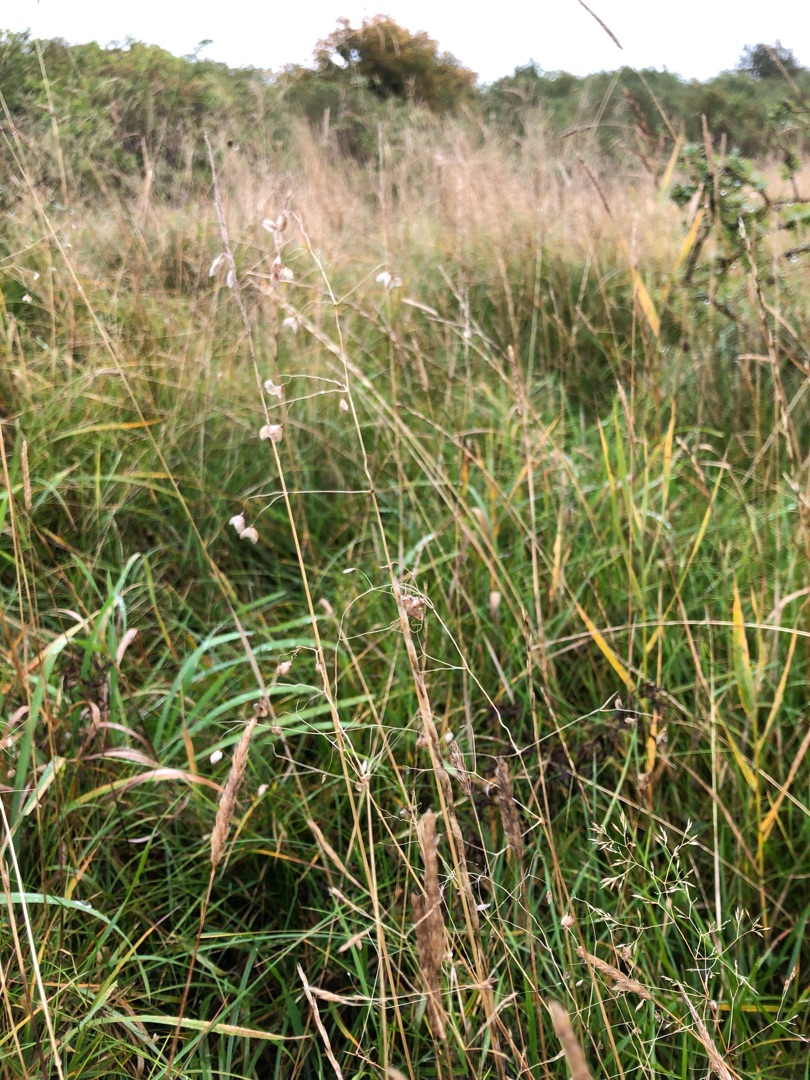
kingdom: Plantae
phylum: Tracheophyta
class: Liliopsida
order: Poales
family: Poaceae
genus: Briza
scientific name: Briza media
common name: Hjertegræs
